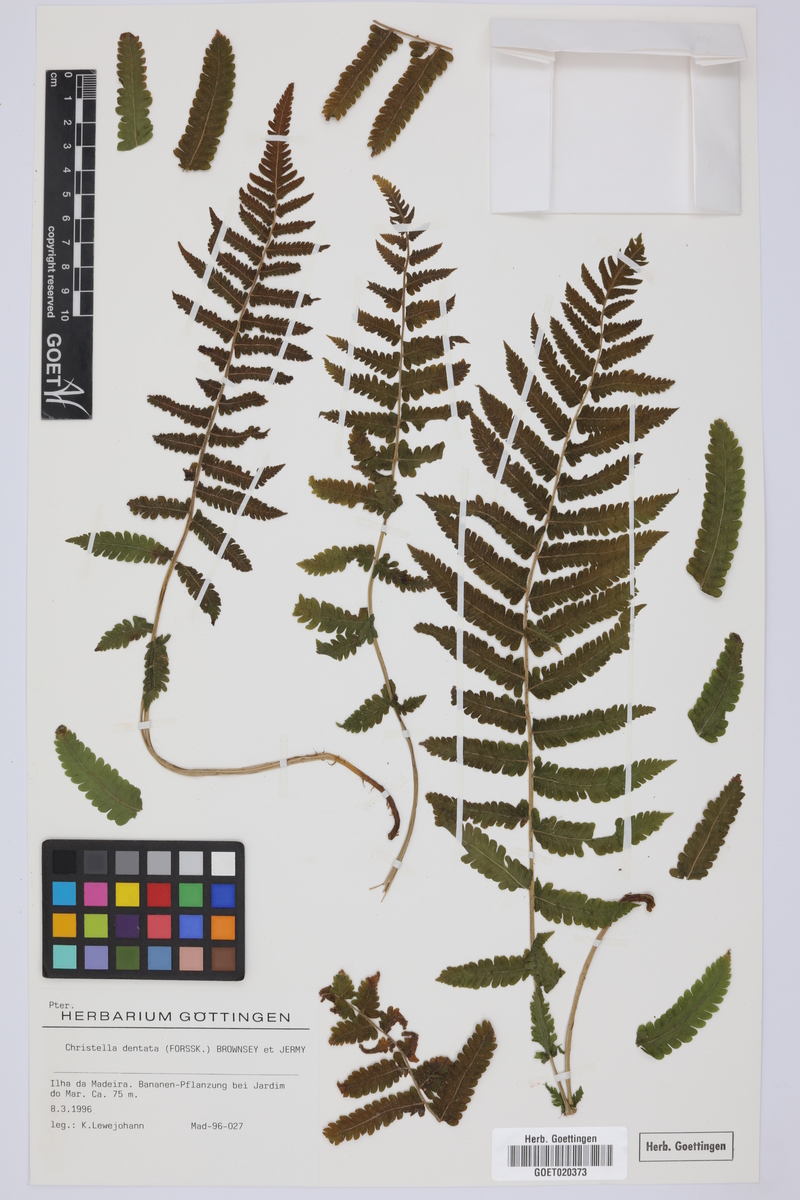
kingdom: Plantae
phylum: Tracheophyta
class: Polypodiopsida
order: Polypodiales
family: Thelypteridaceae
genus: Christella
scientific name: Christella dentata
